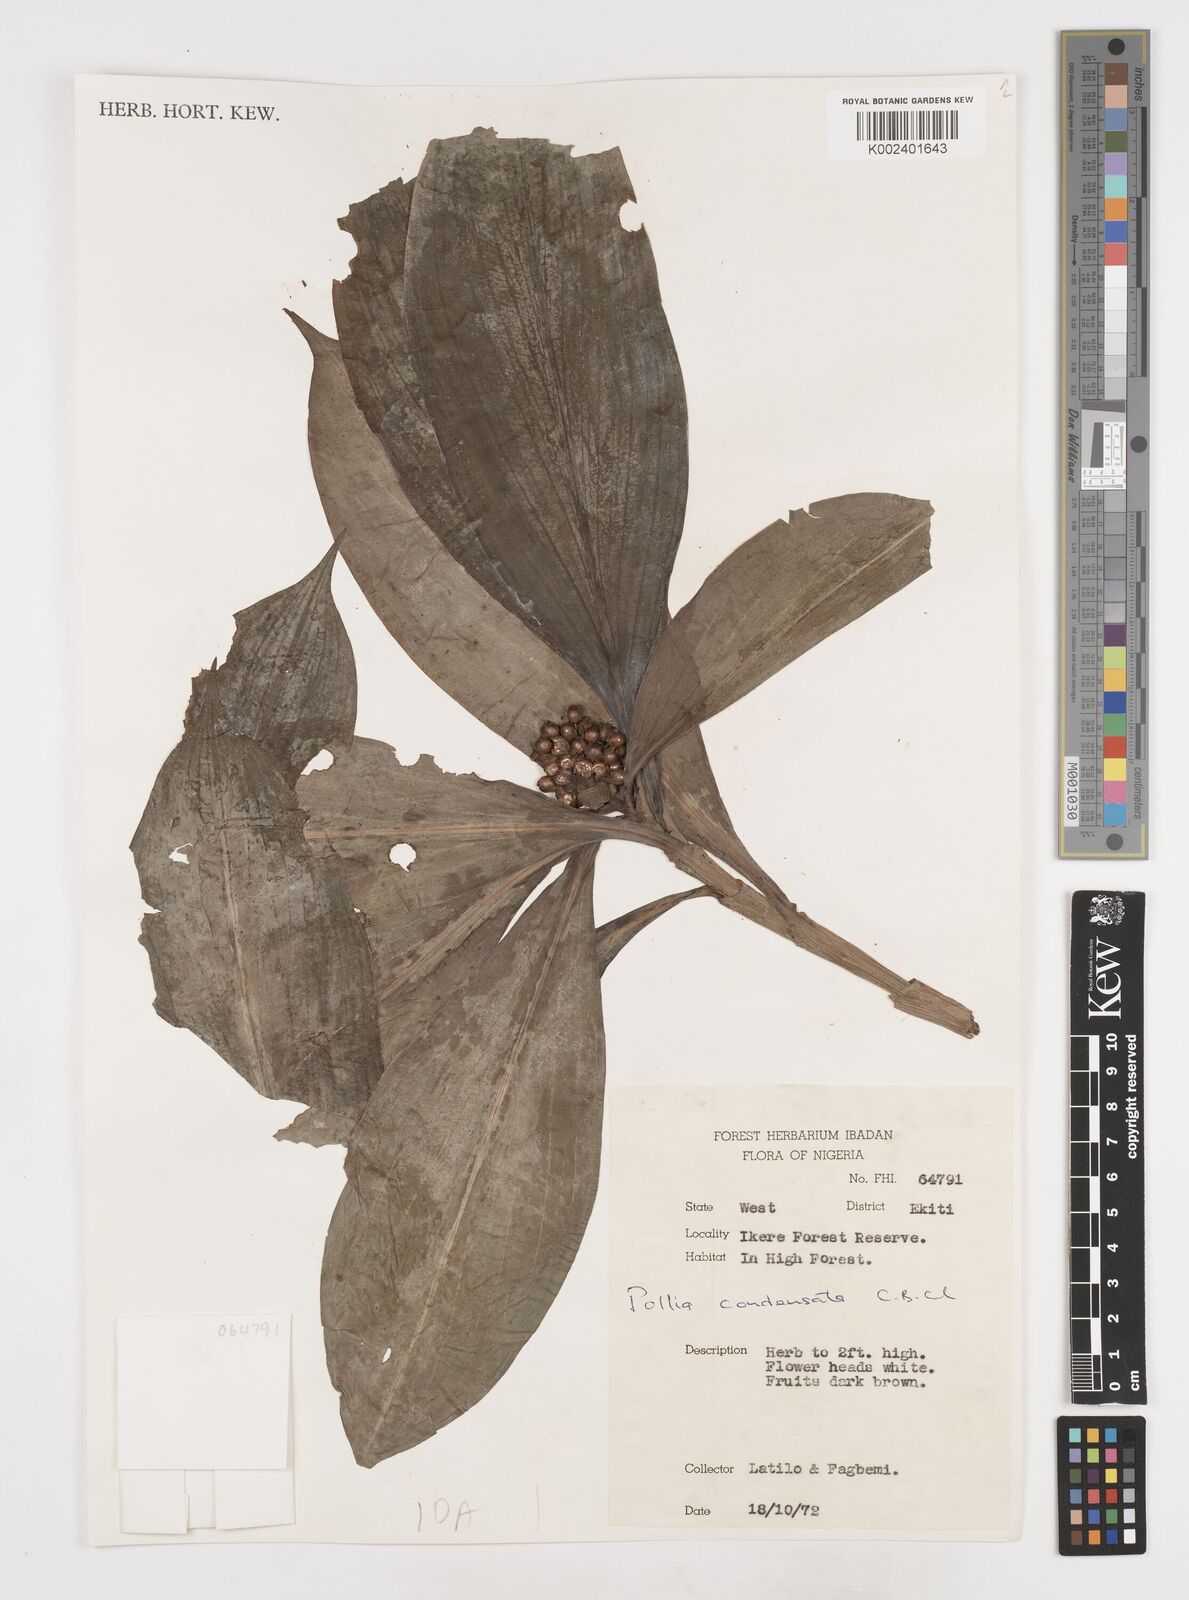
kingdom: Plantae
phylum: Tracheophyta
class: Liliopsida
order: Commelinales
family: Commelinaceae
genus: Pollia
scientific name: Pollia condensata
